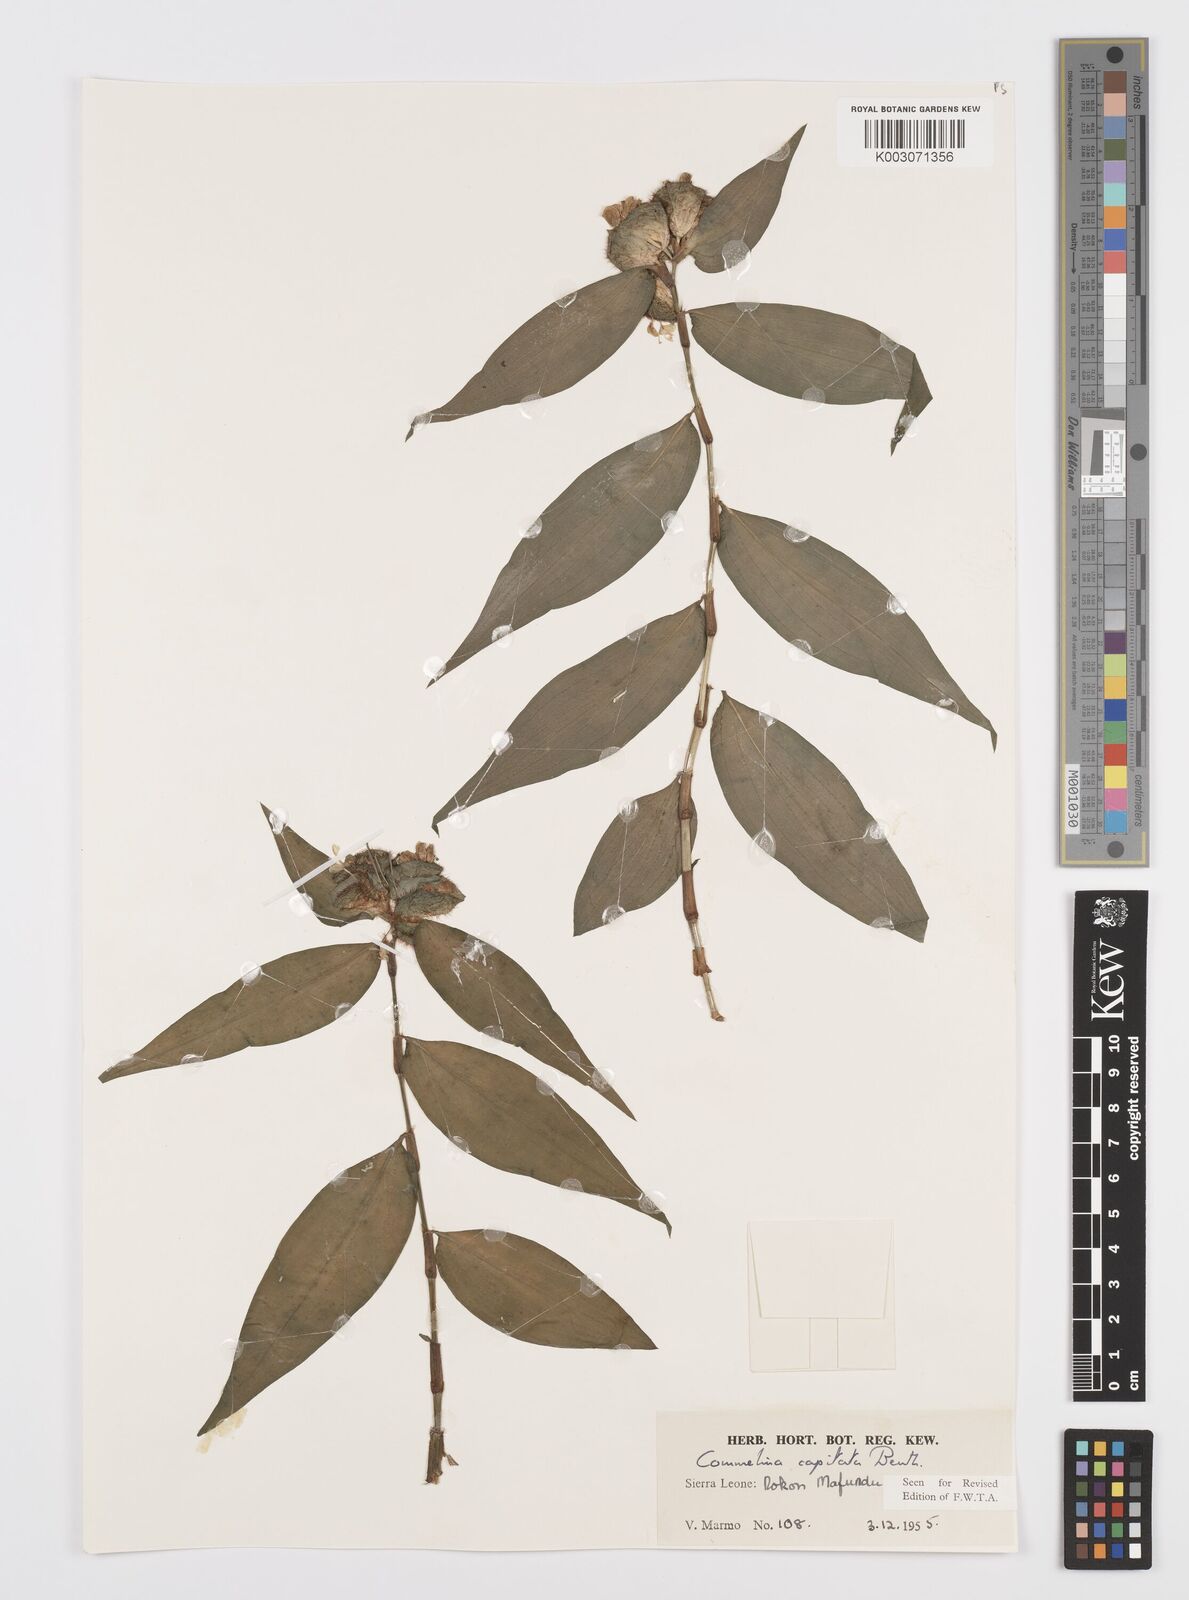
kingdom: Plantae
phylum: Tracheophyta
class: Liliopsida
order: Commelinales
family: Commelinaceae
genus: Commelina
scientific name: Commelina capitata
